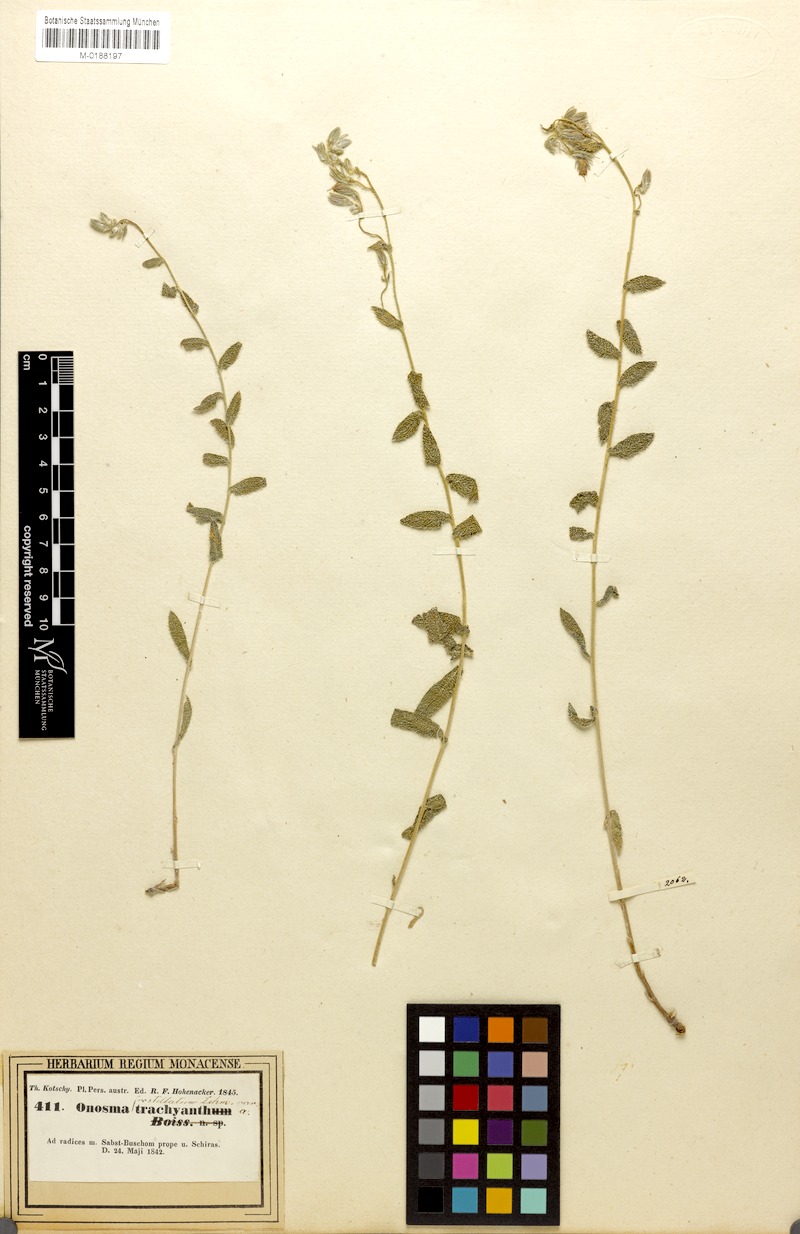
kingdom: Plantae
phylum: Tracheophyta
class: Magnoliopsida
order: Boraginales
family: Boraginaceae
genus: Onosma
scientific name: Onosma kotschyi
